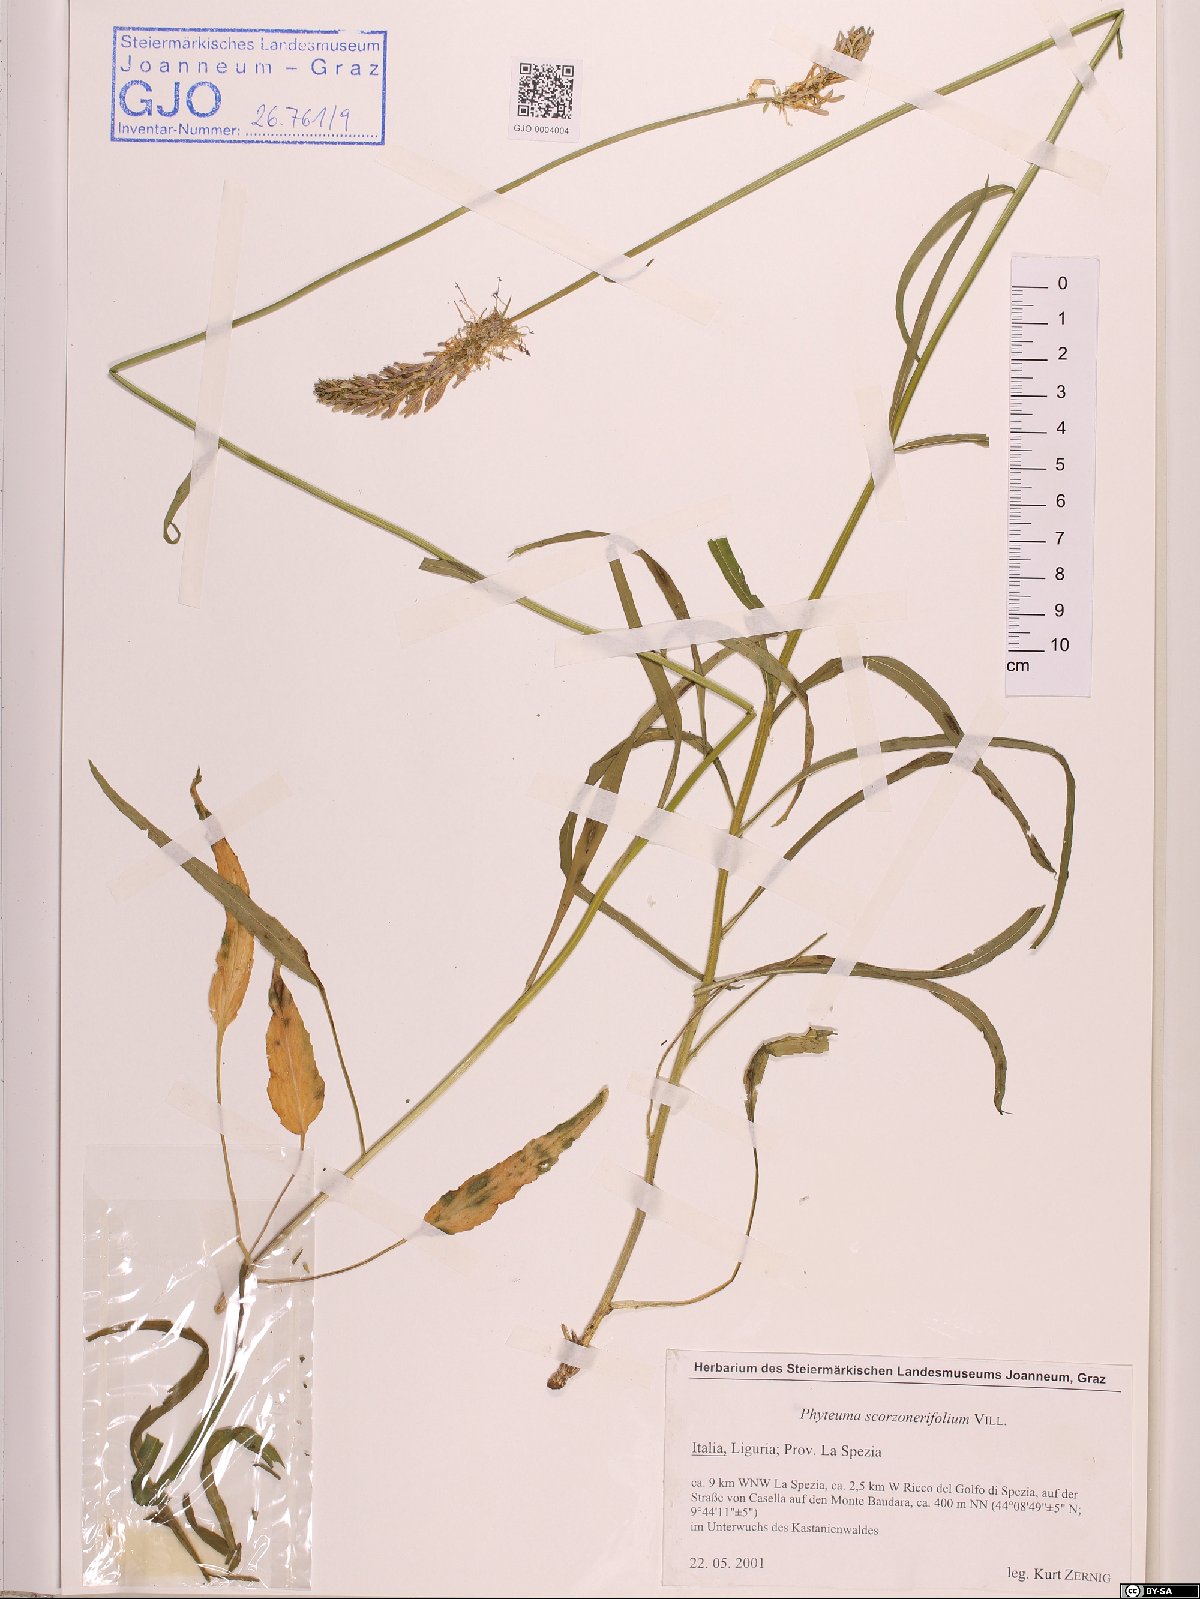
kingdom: Plantae
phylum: Tracheophyta
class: Magnoliopsida
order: Asterales
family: Campanulaceae
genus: Phyteuma
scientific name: Phyteuma scorzonerifolium
